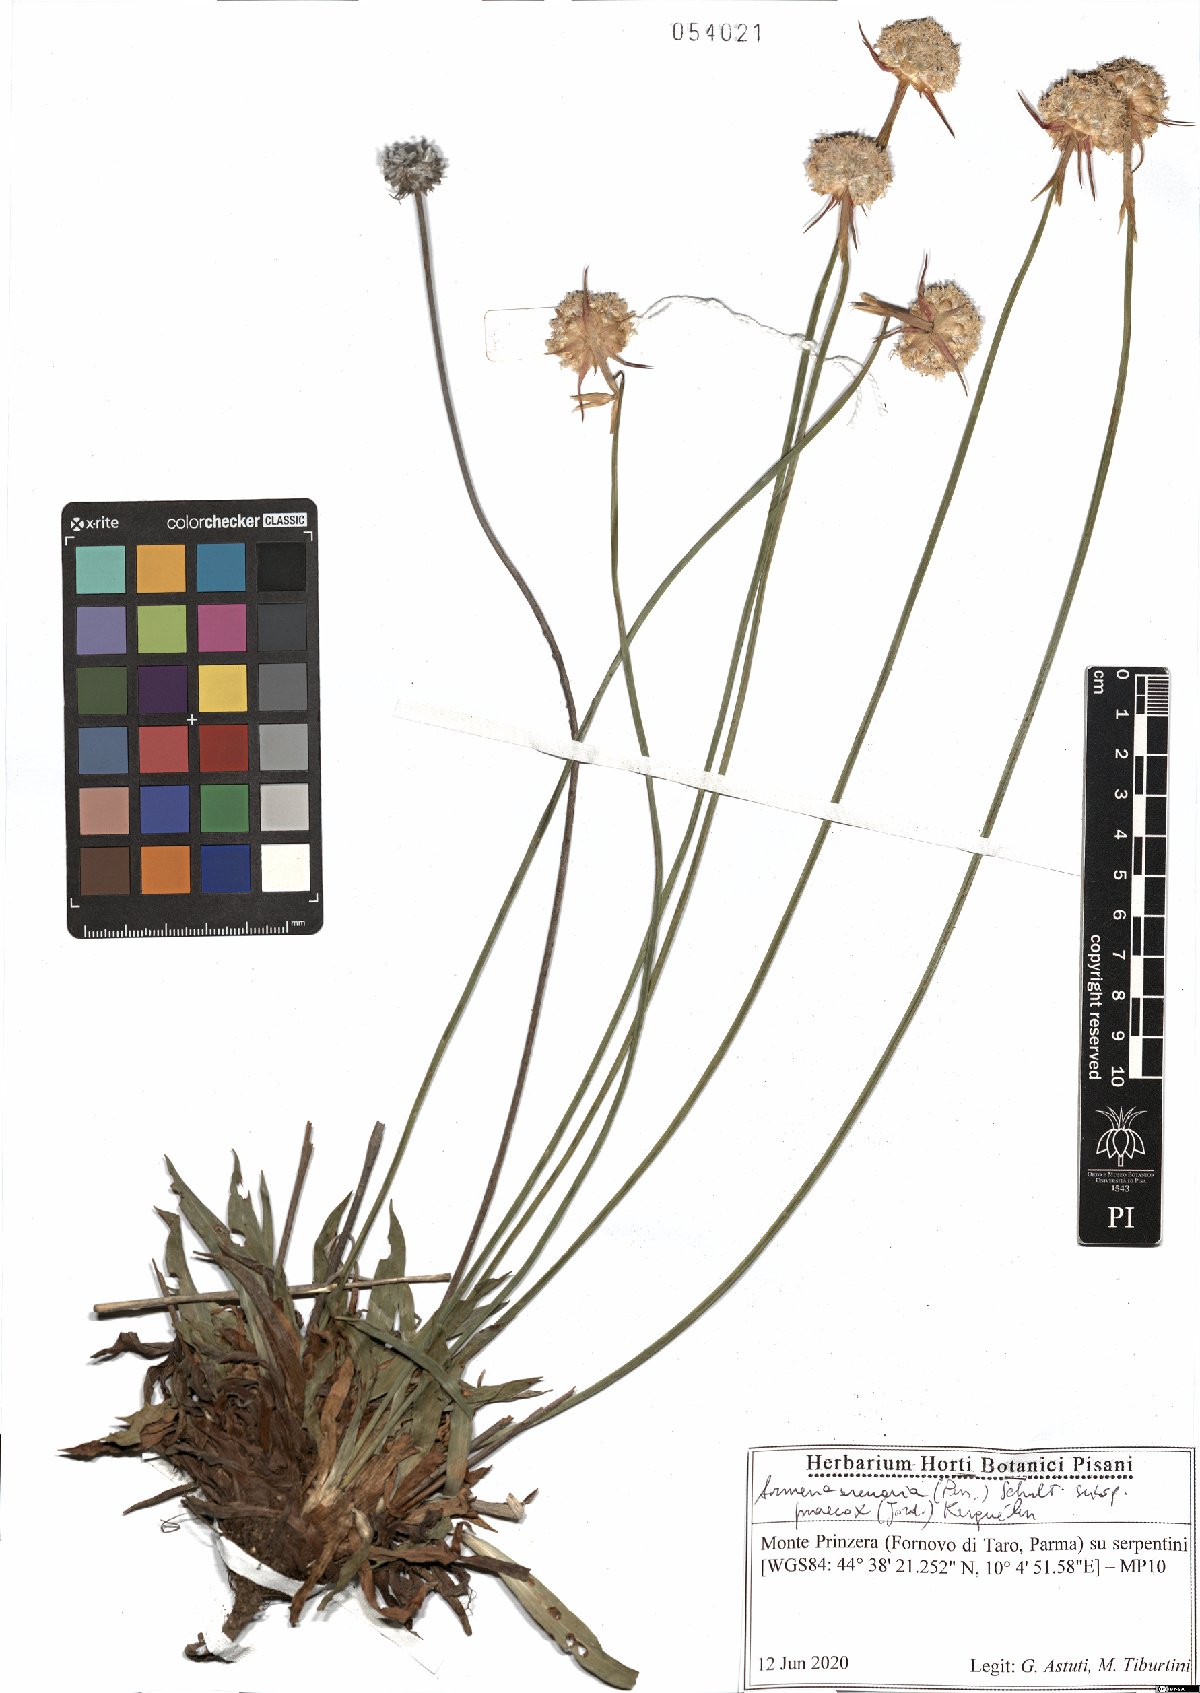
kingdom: Plantae
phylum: Tracheophyta
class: Magnoliopsida
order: Caryophyllales
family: Plumbaginaceae
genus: Armeria
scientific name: Armeria arenaria
